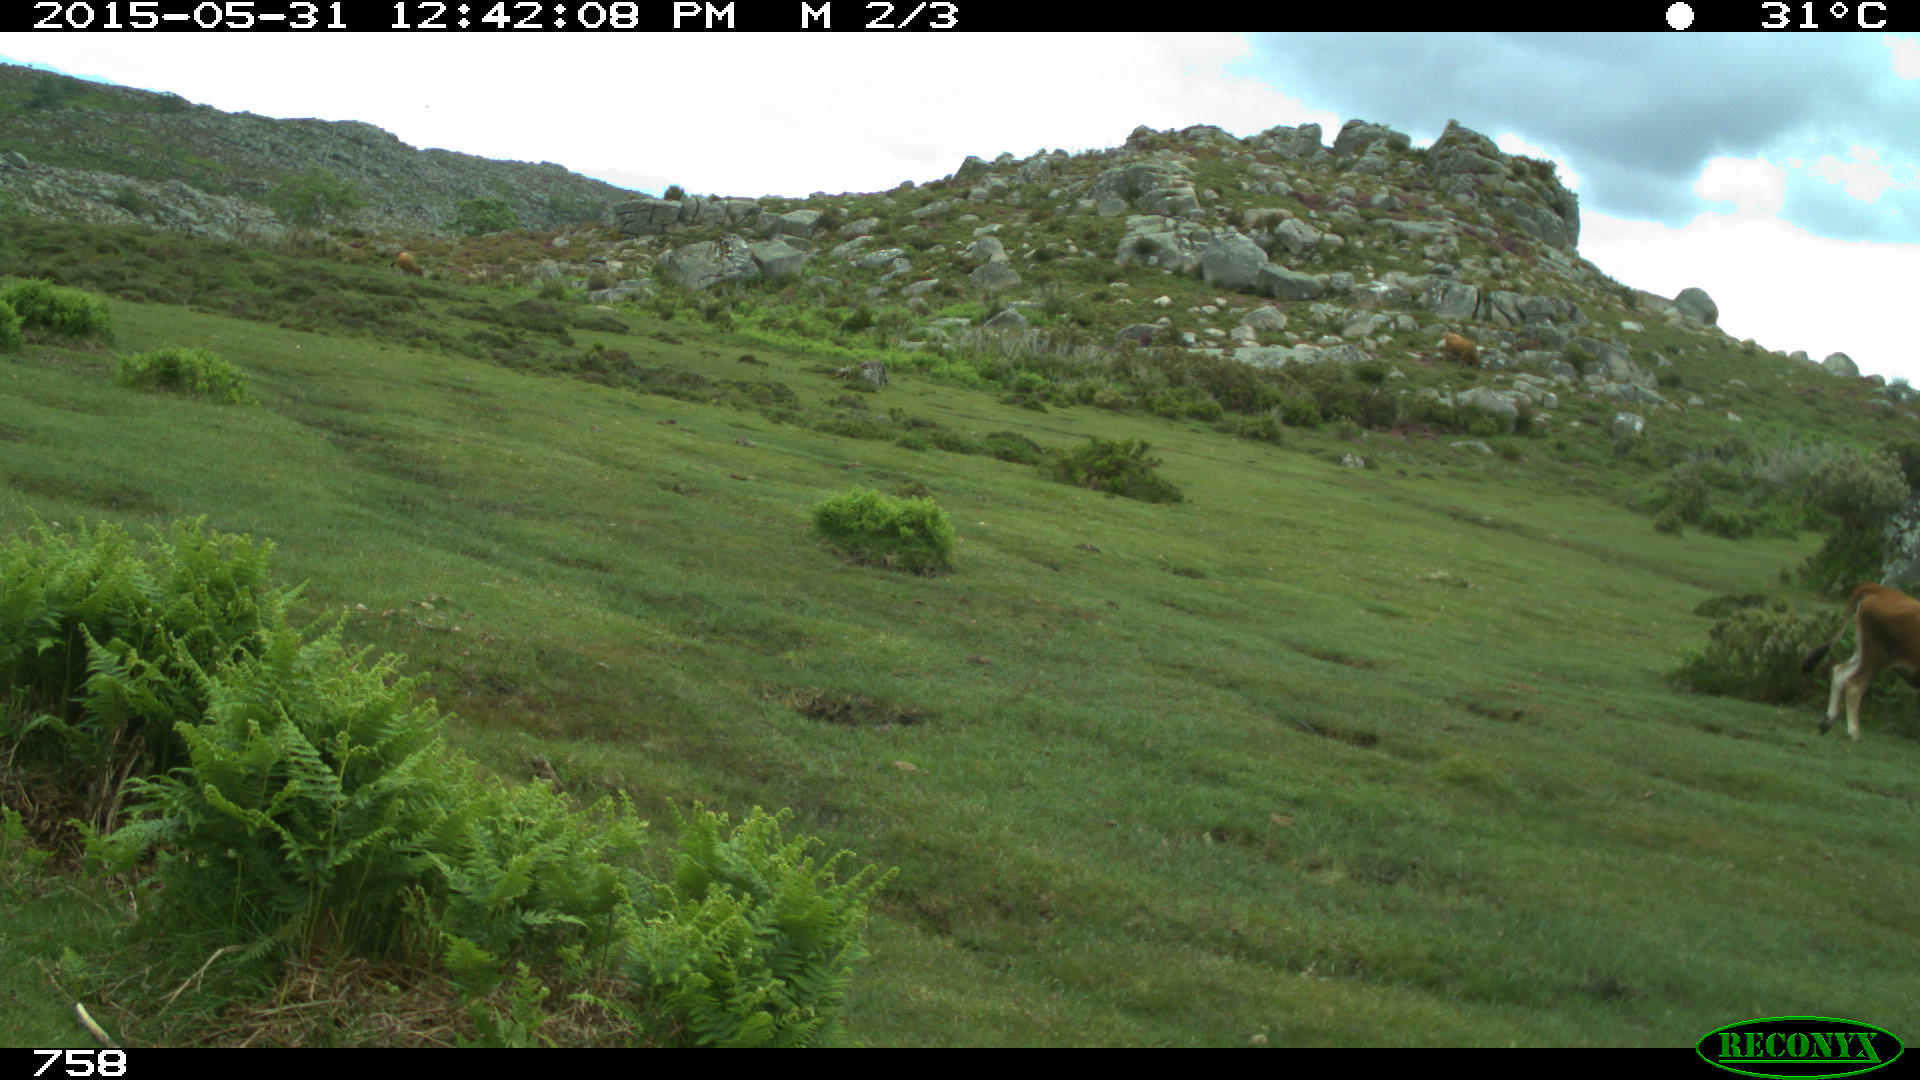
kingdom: Animalia
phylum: Chordata
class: Mammalia
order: Artiodactyla
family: Bovidae
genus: Bos
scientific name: Bos taurus
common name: Domesticated cattle
